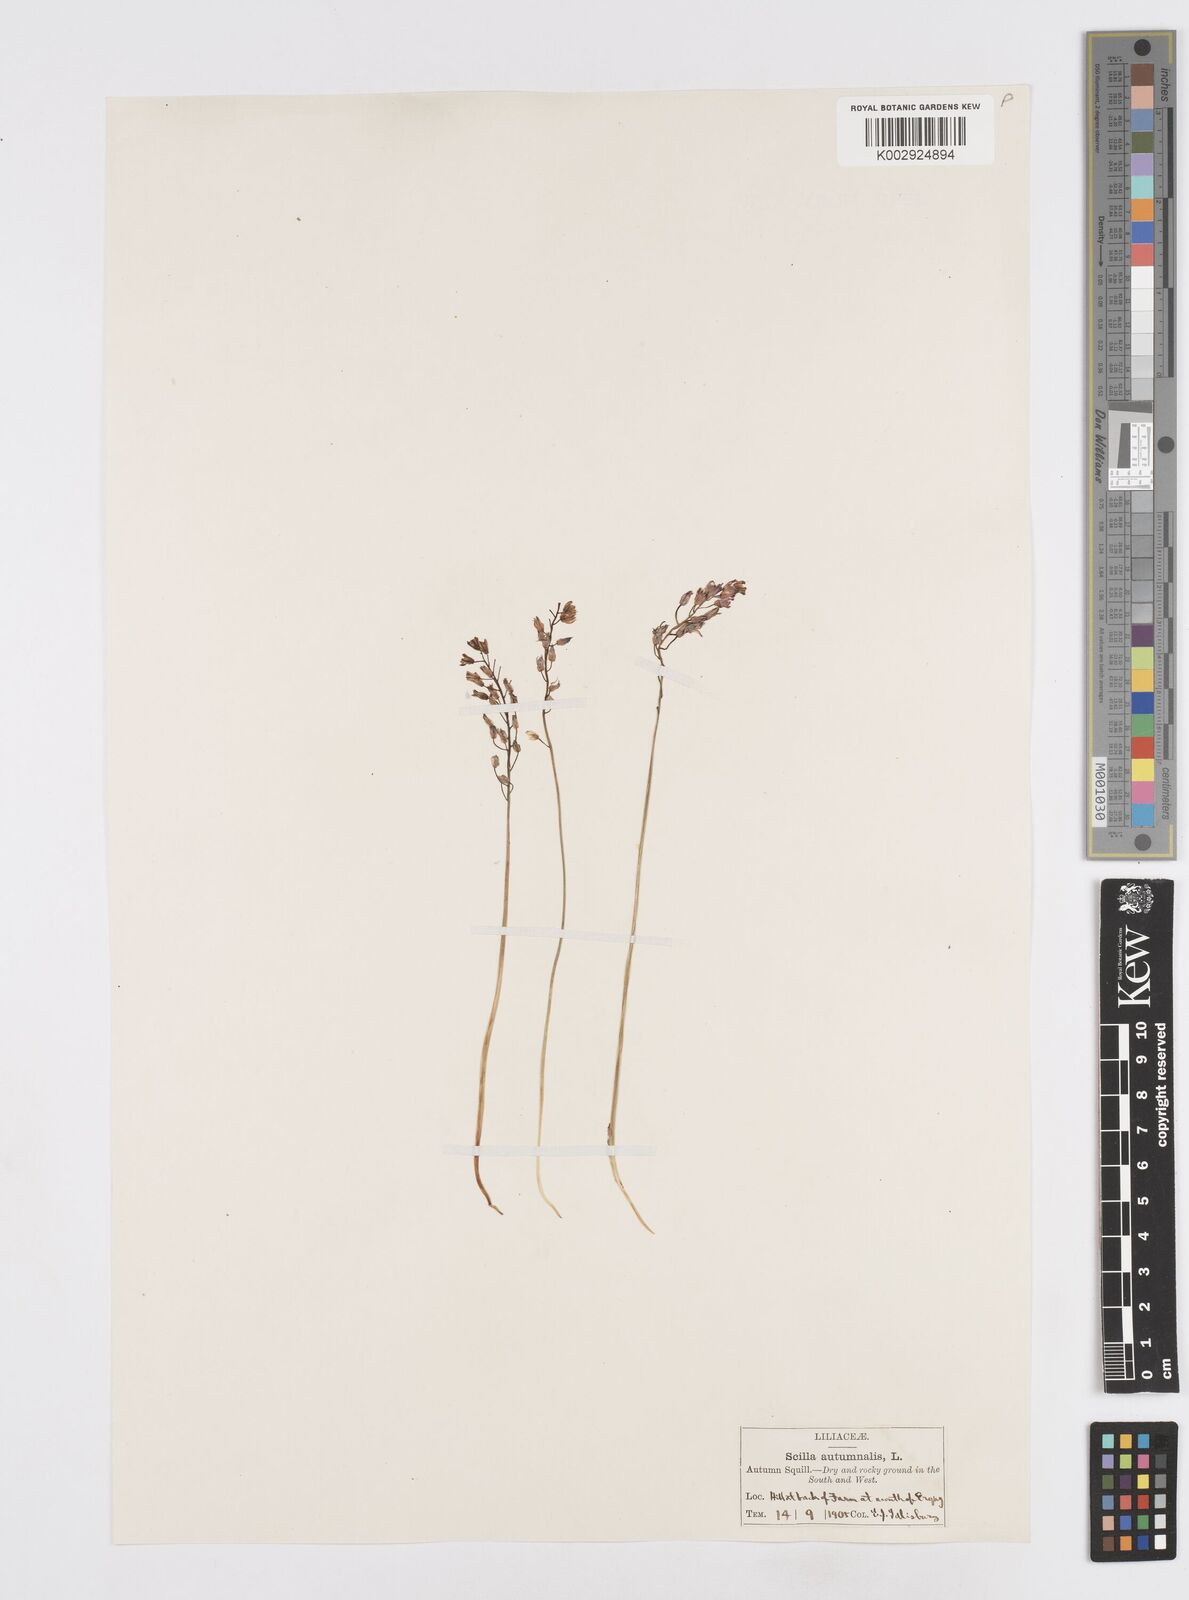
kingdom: Plantae
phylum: Tracheophyta
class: Liliopsida
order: Asparagales
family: Asparagaceae
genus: Prospero
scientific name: Prospero autumnale
